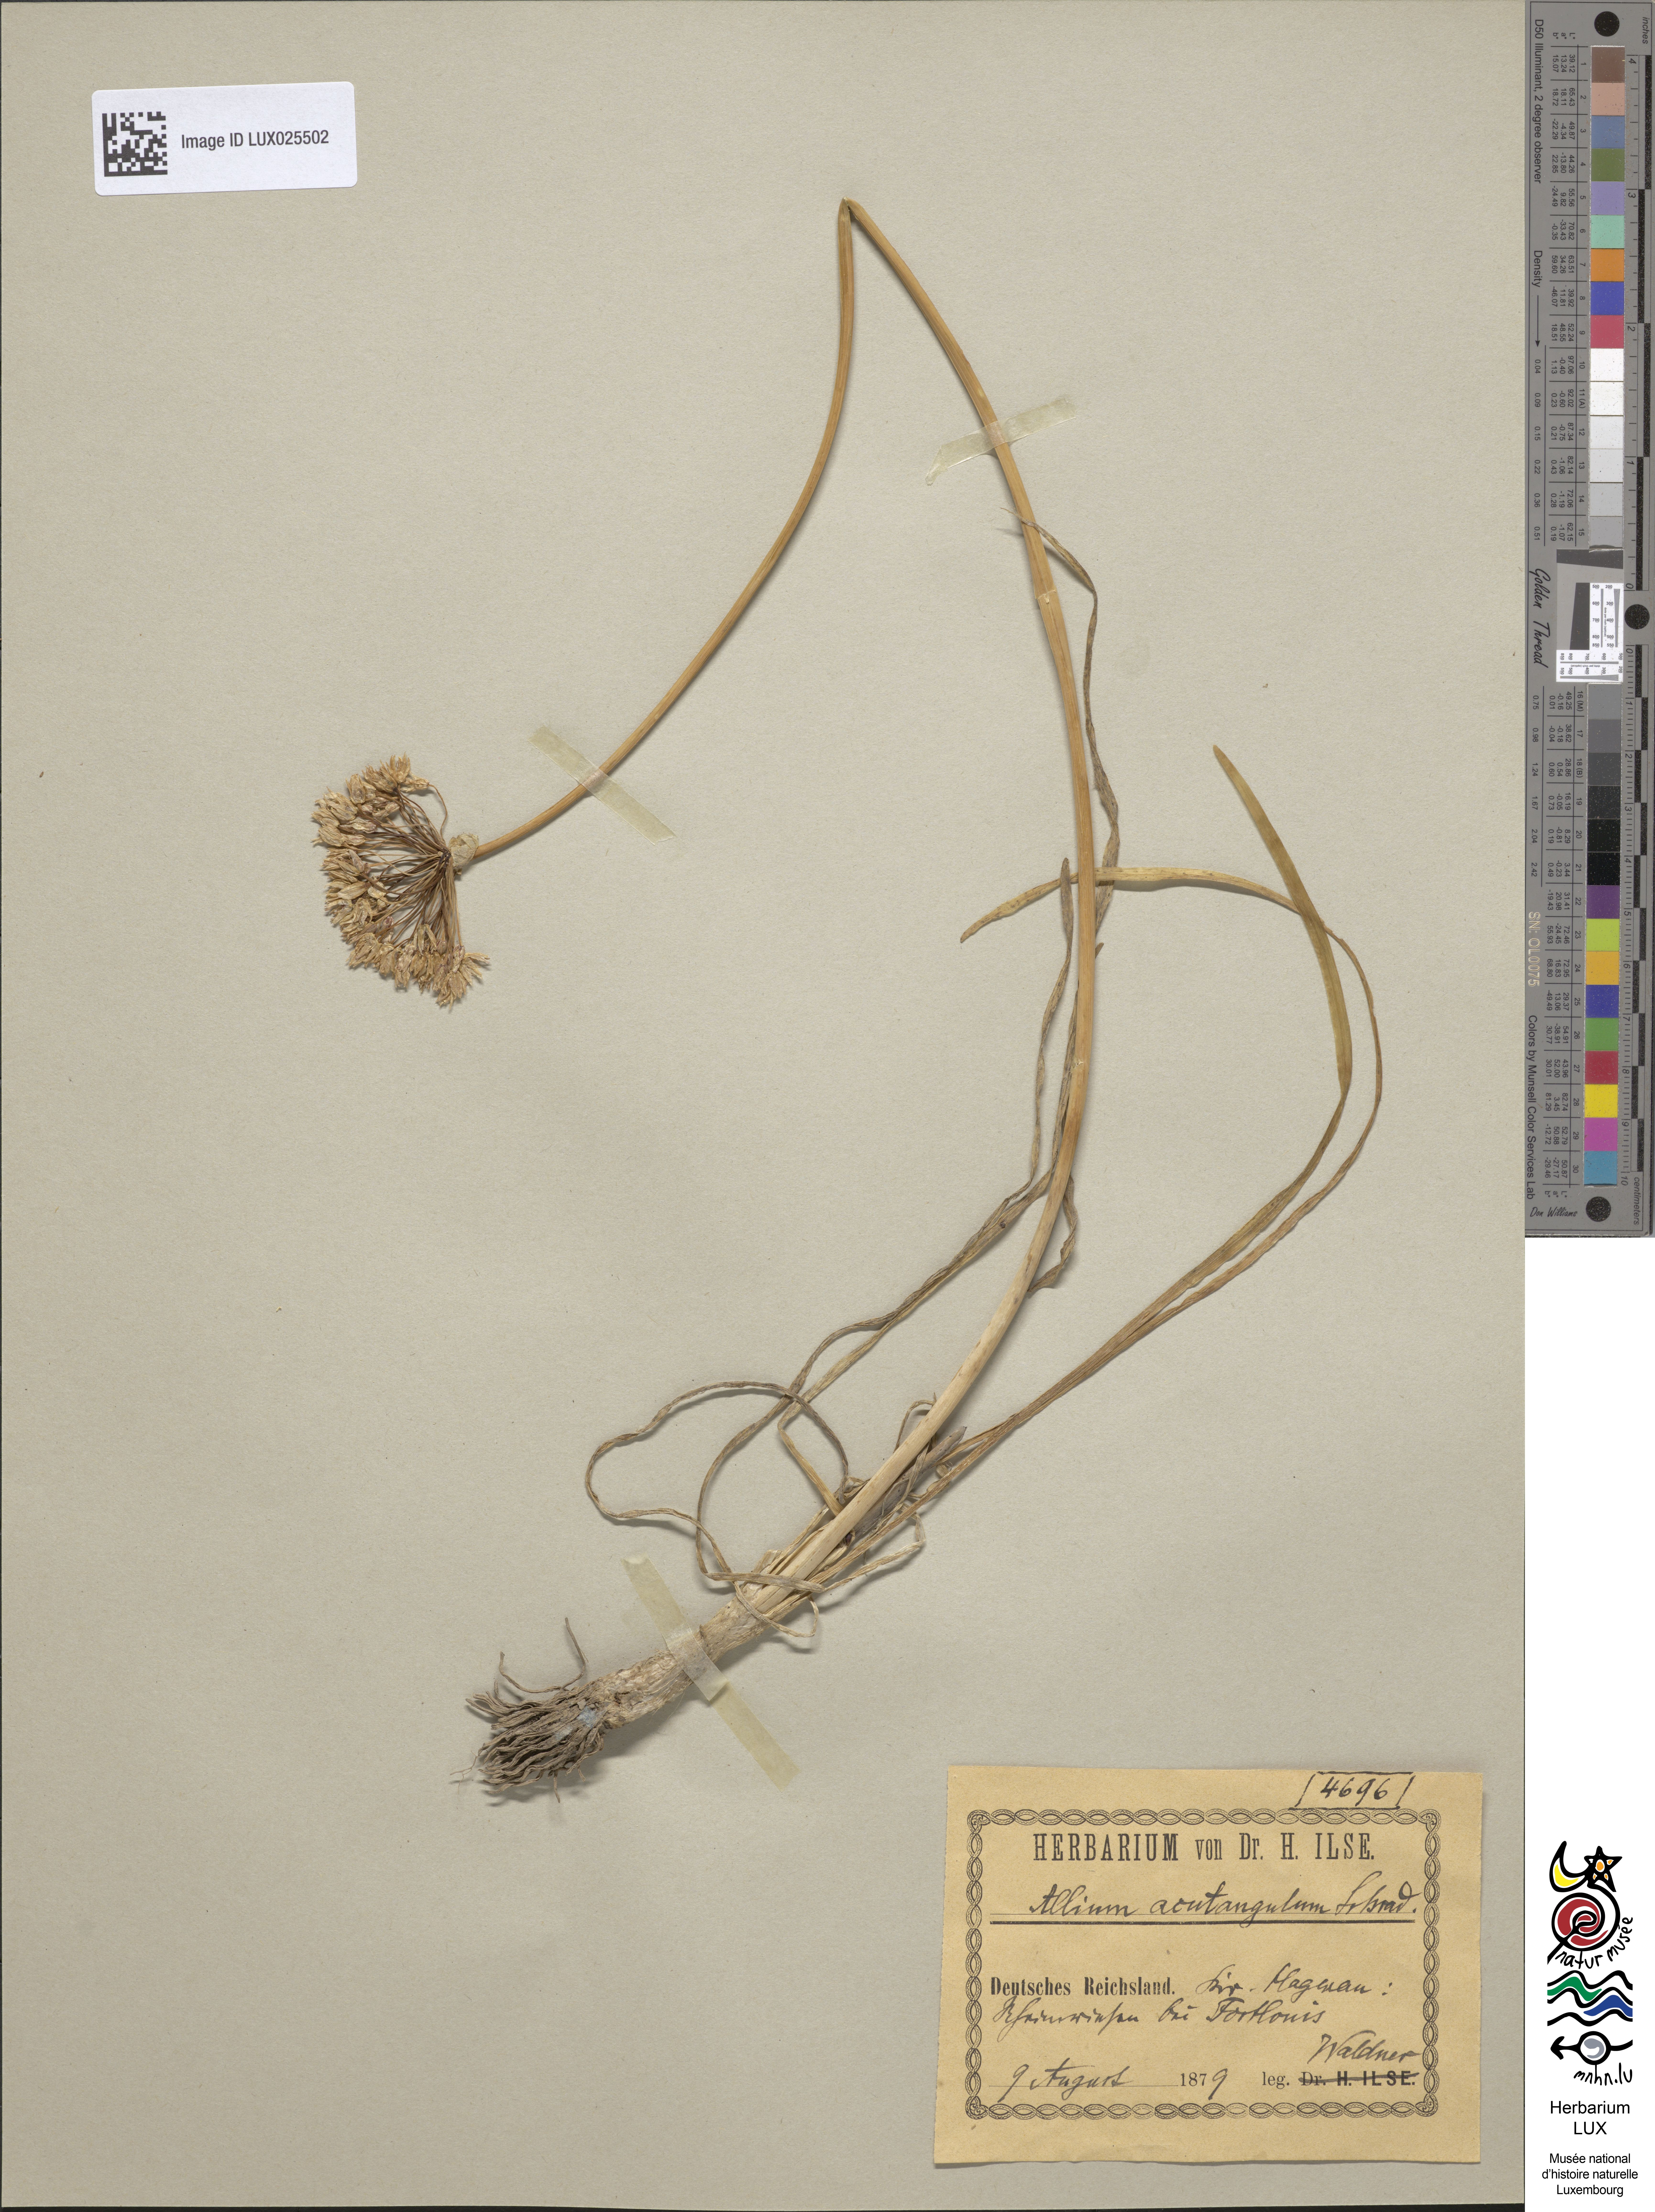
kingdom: Plantae
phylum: Tracheophyta
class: Liliopsida
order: Asparagales
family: Amaryllidaceae
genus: Allium
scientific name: Allium angulosum
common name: Mouse garlic
